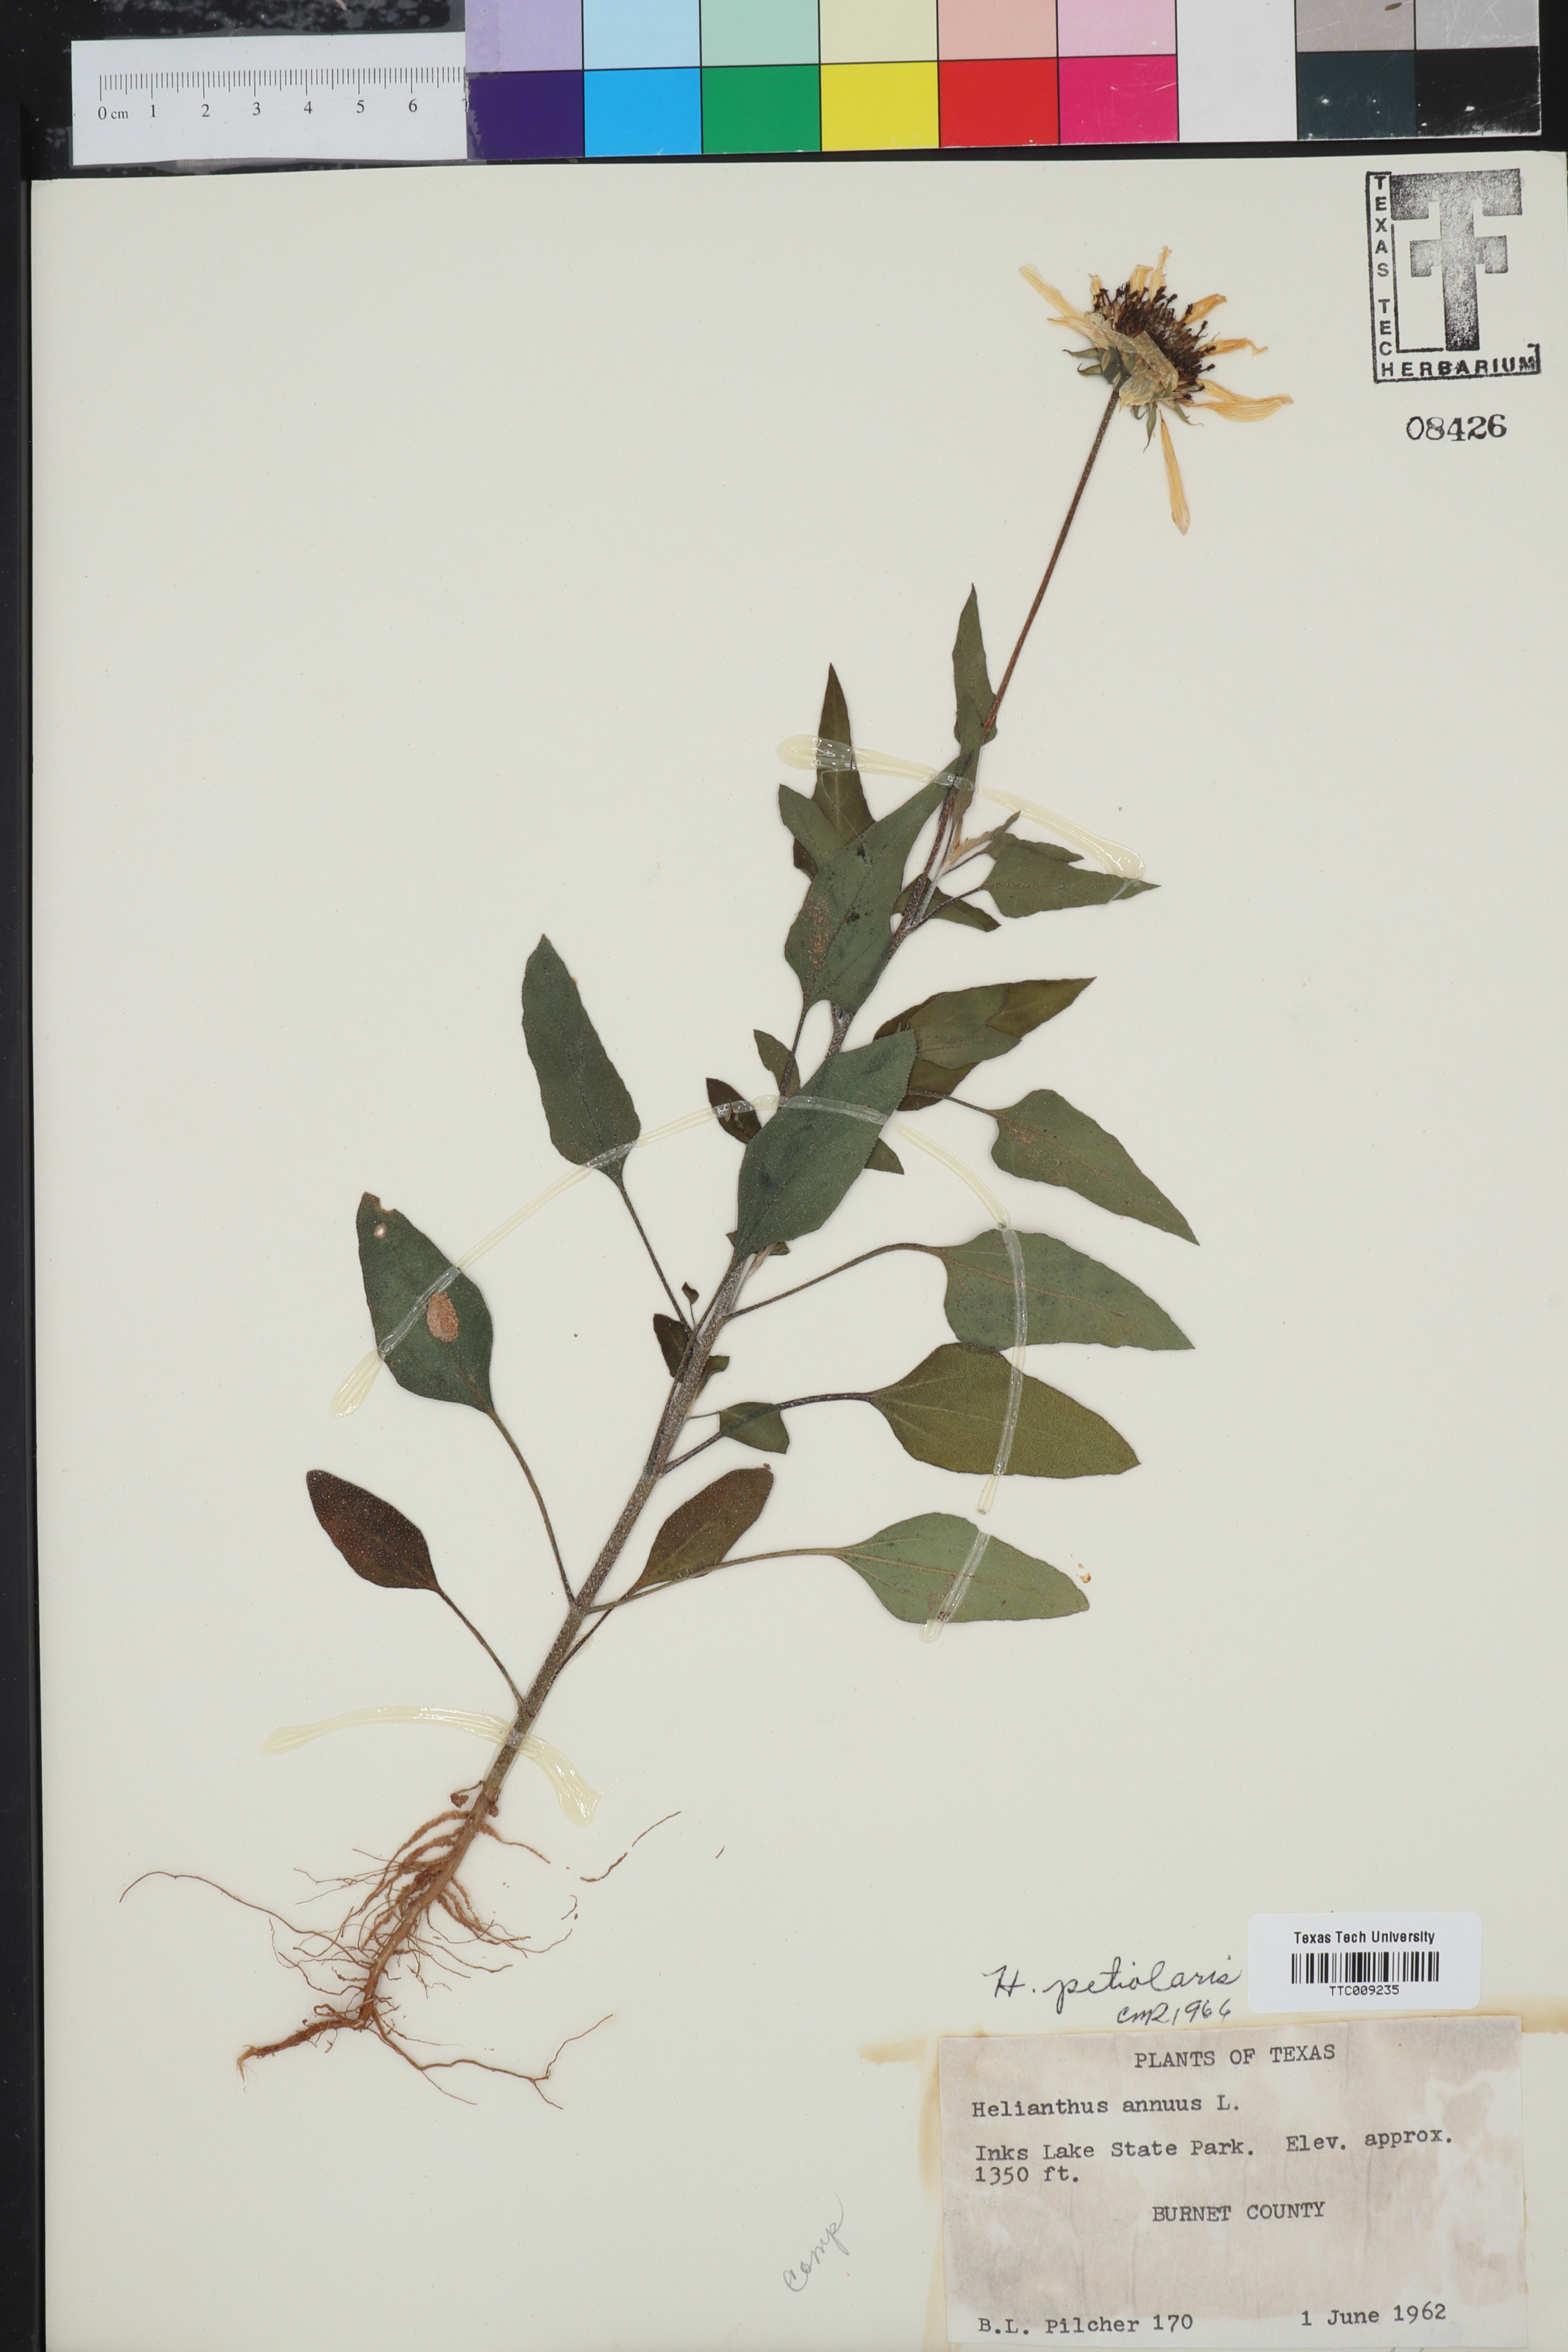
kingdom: Plantae
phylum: Tracheophyta
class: Magnoliopsida
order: Asterales
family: Asteraceae
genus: Helianthus
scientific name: Helianthus petiolaris
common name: Lesser sunflower
